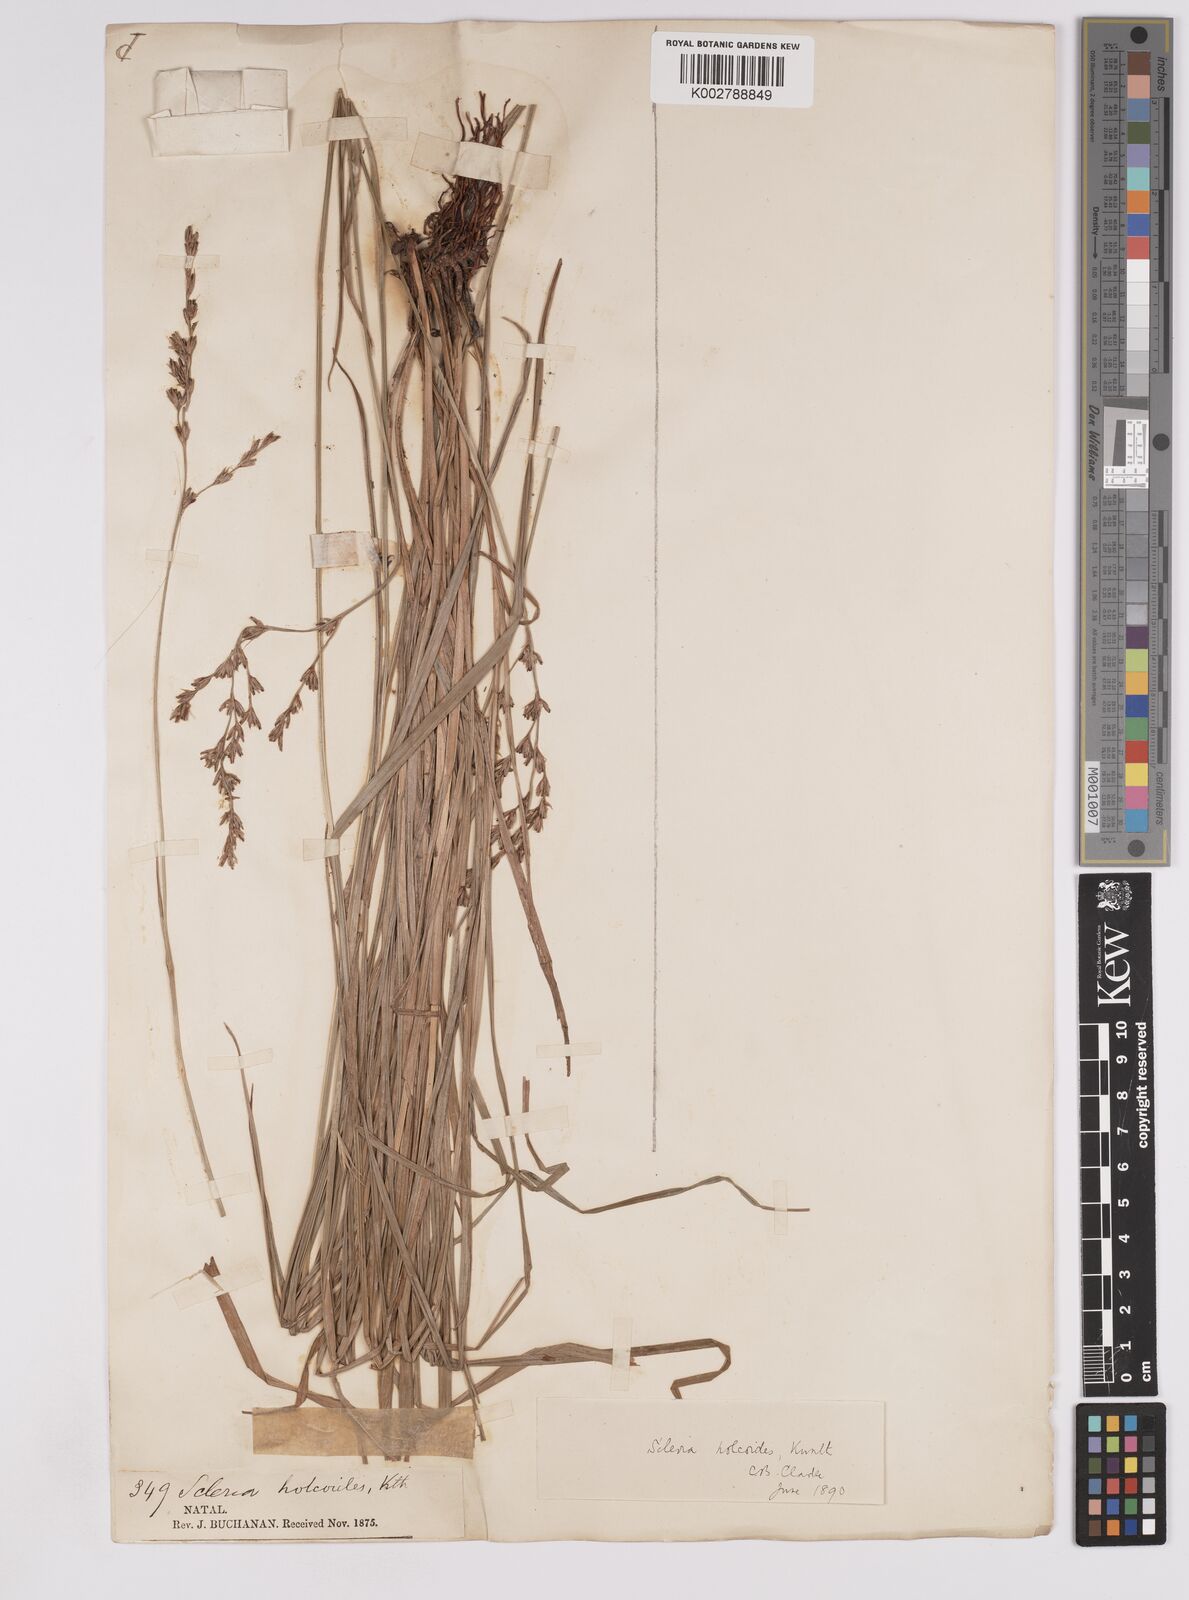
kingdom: Plantae
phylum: Tracheophyta
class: Liliopsida
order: Poales
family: Cyperaceae
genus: Scleria
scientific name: Scleria dregeana
